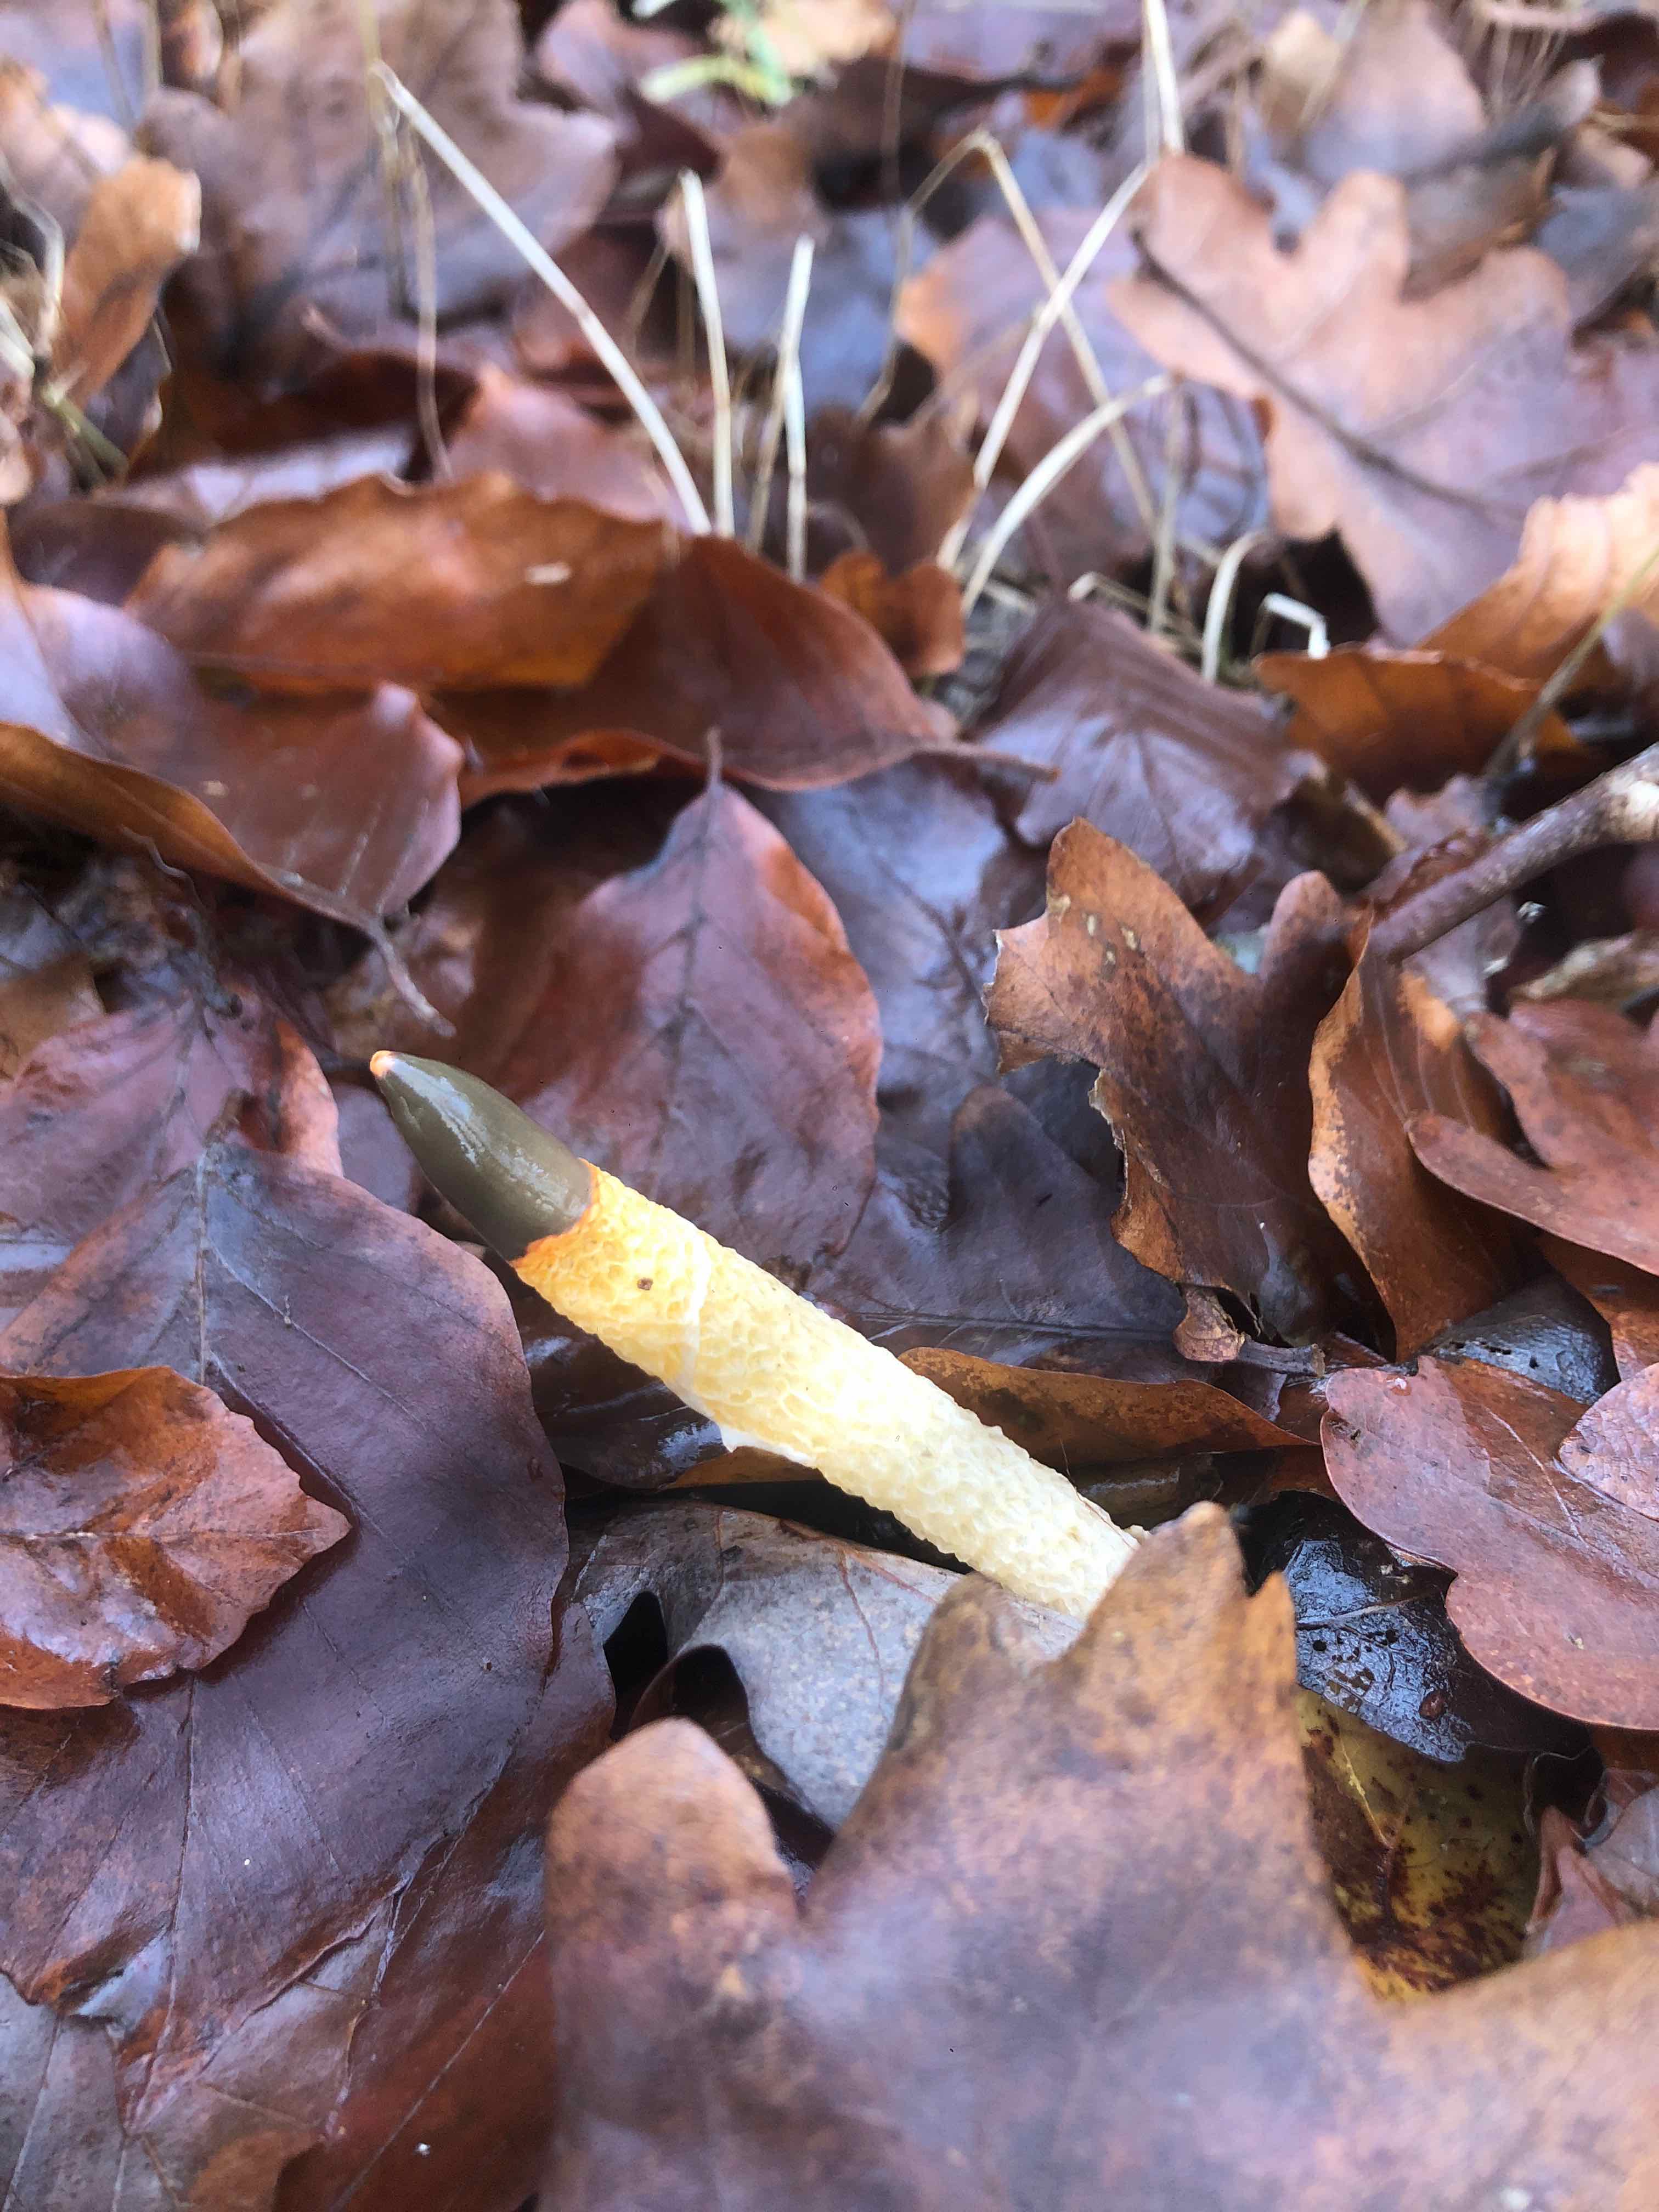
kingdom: Fungi
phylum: Basidiomycota
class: Agaricomycetes
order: Phallales
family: Phallaceae
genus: Mutinus
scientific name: Mutinus caninus
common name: hunde-stinksvamp
